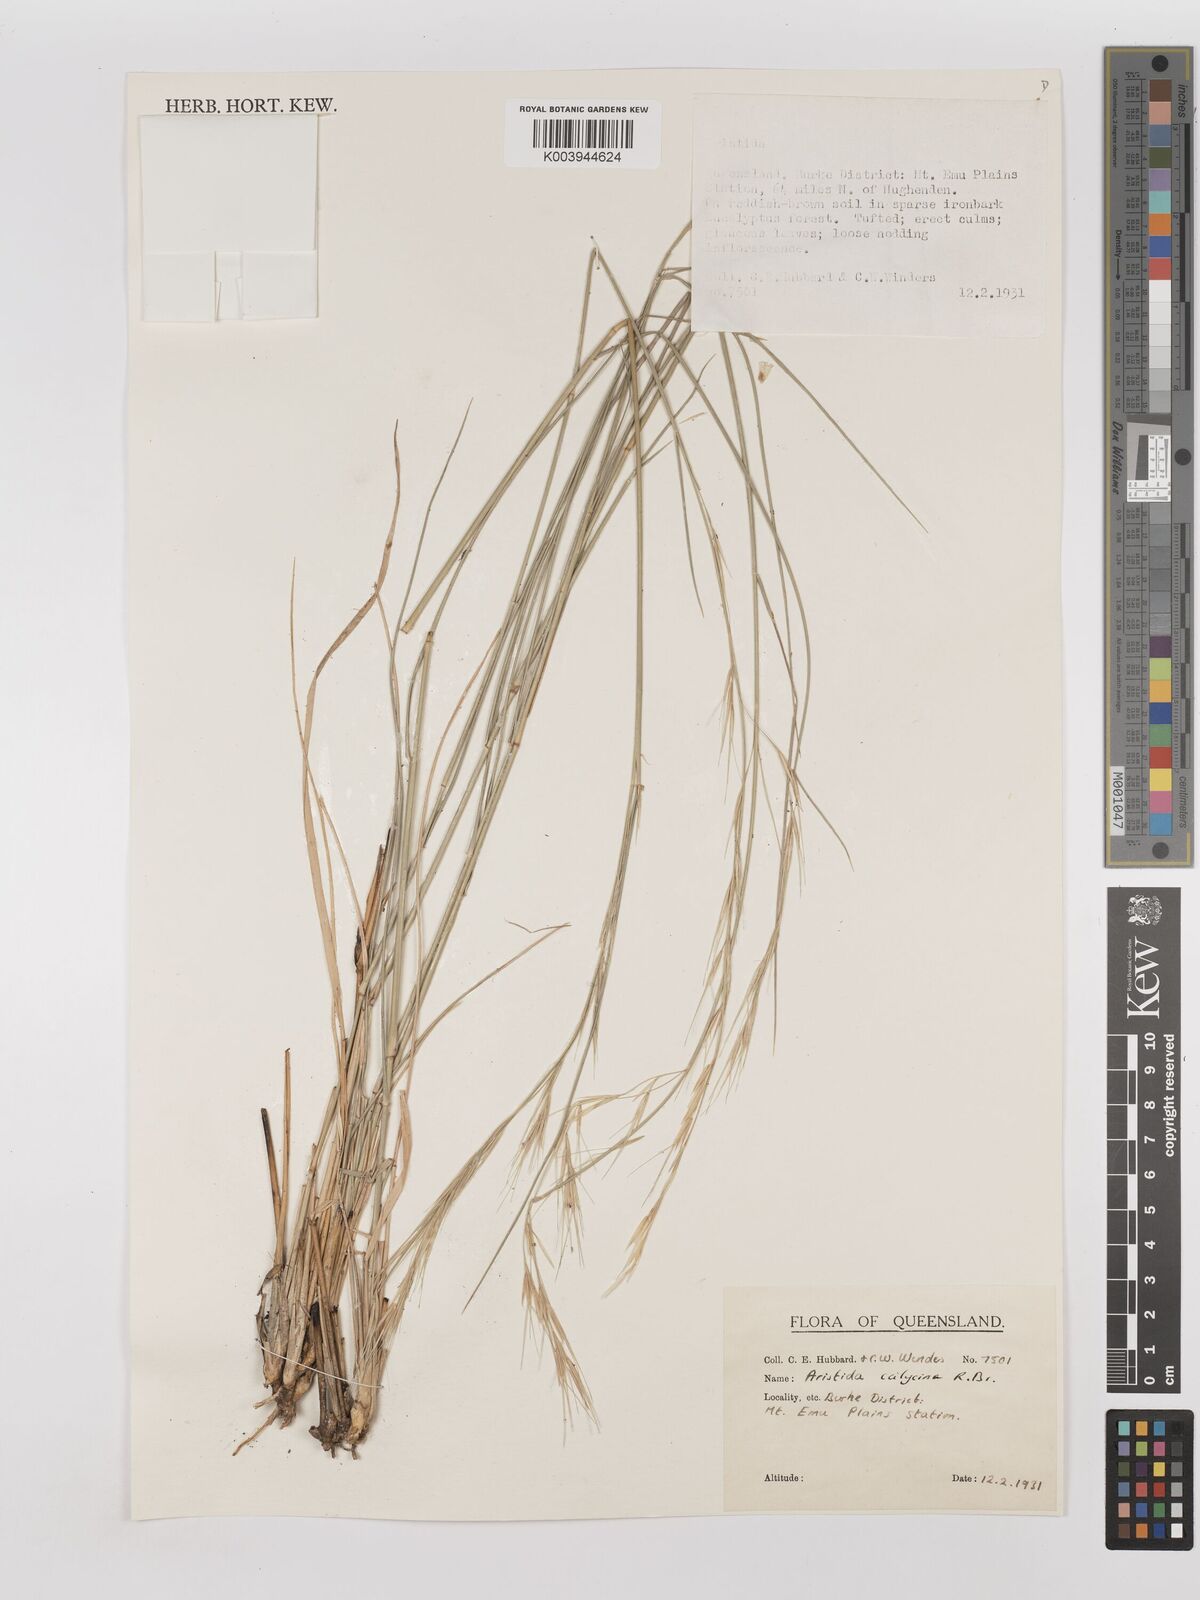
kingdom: Plantae
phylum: Tracheophyta
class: Liliopsida
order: Poales
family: Poaceae
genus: Aristida
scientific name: Aristida calycina
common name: Dark wire grass
